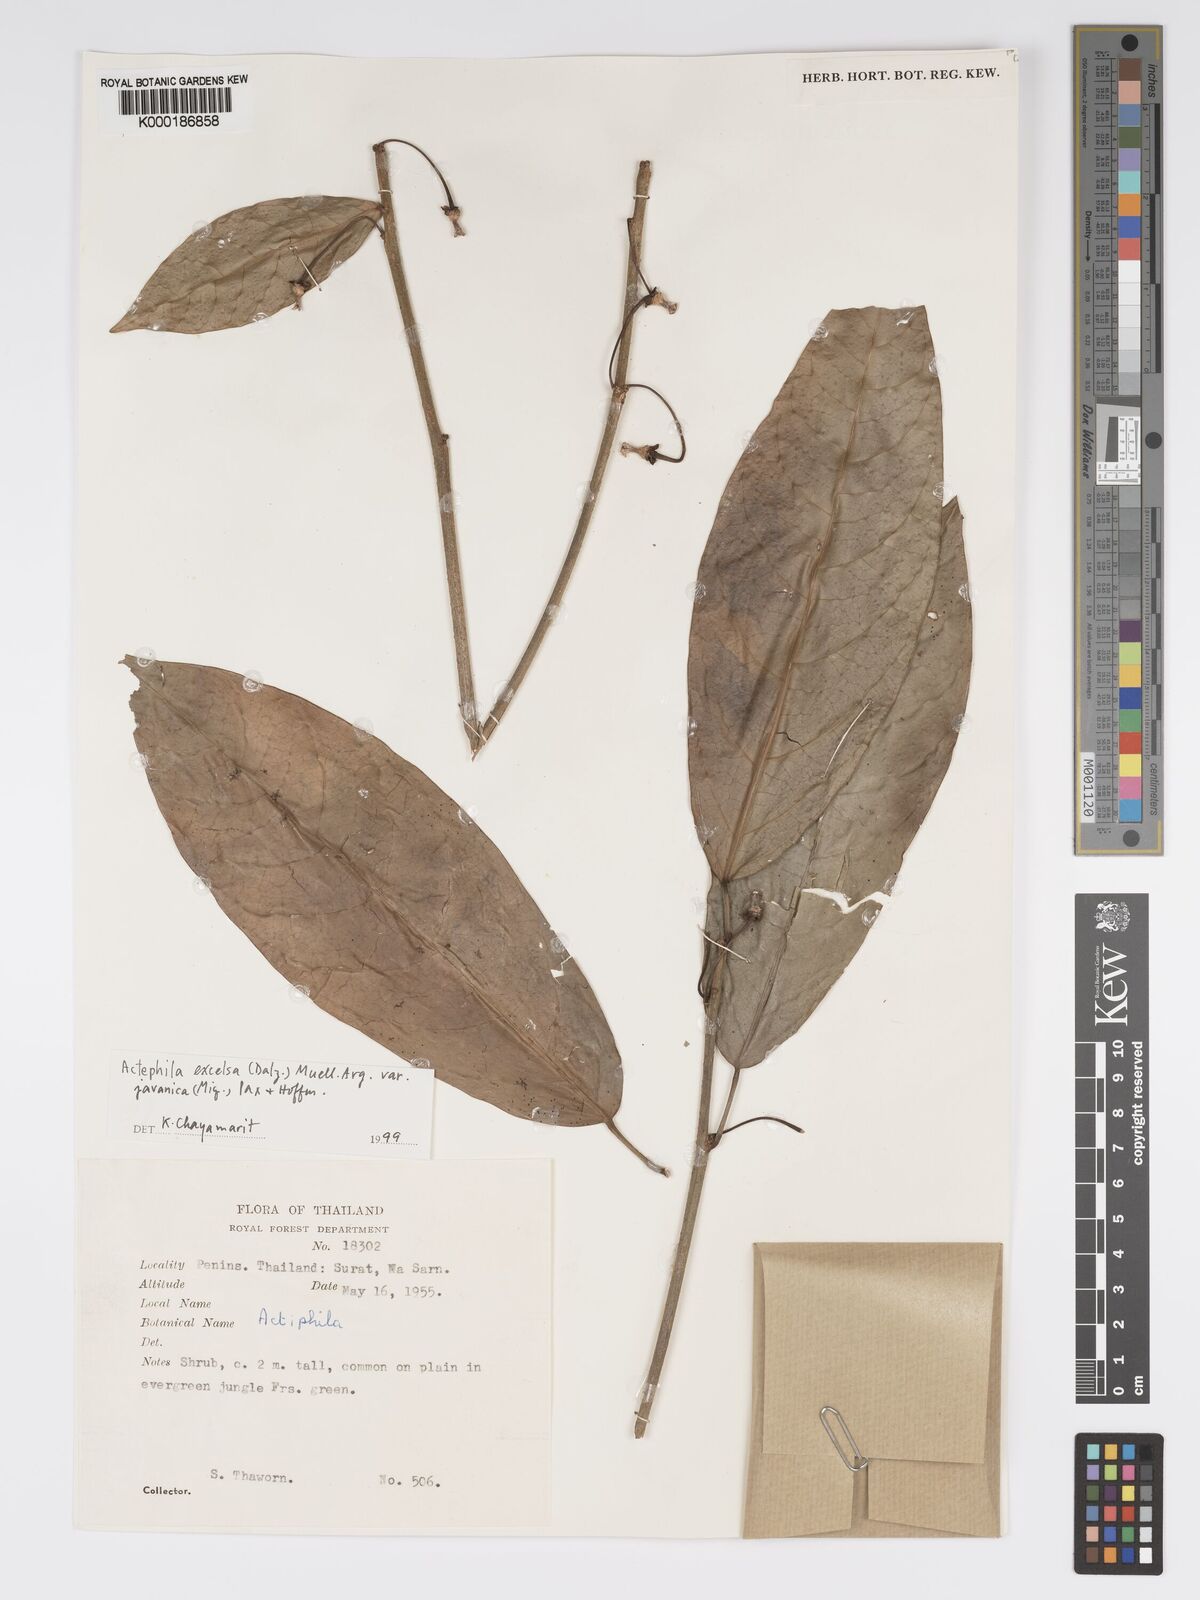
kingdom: Plantae
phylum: Tracheophyta
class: Magnoliopsida
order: Malpighiales
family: Phyllanthaceae
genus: Actephila
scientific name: Actephila
